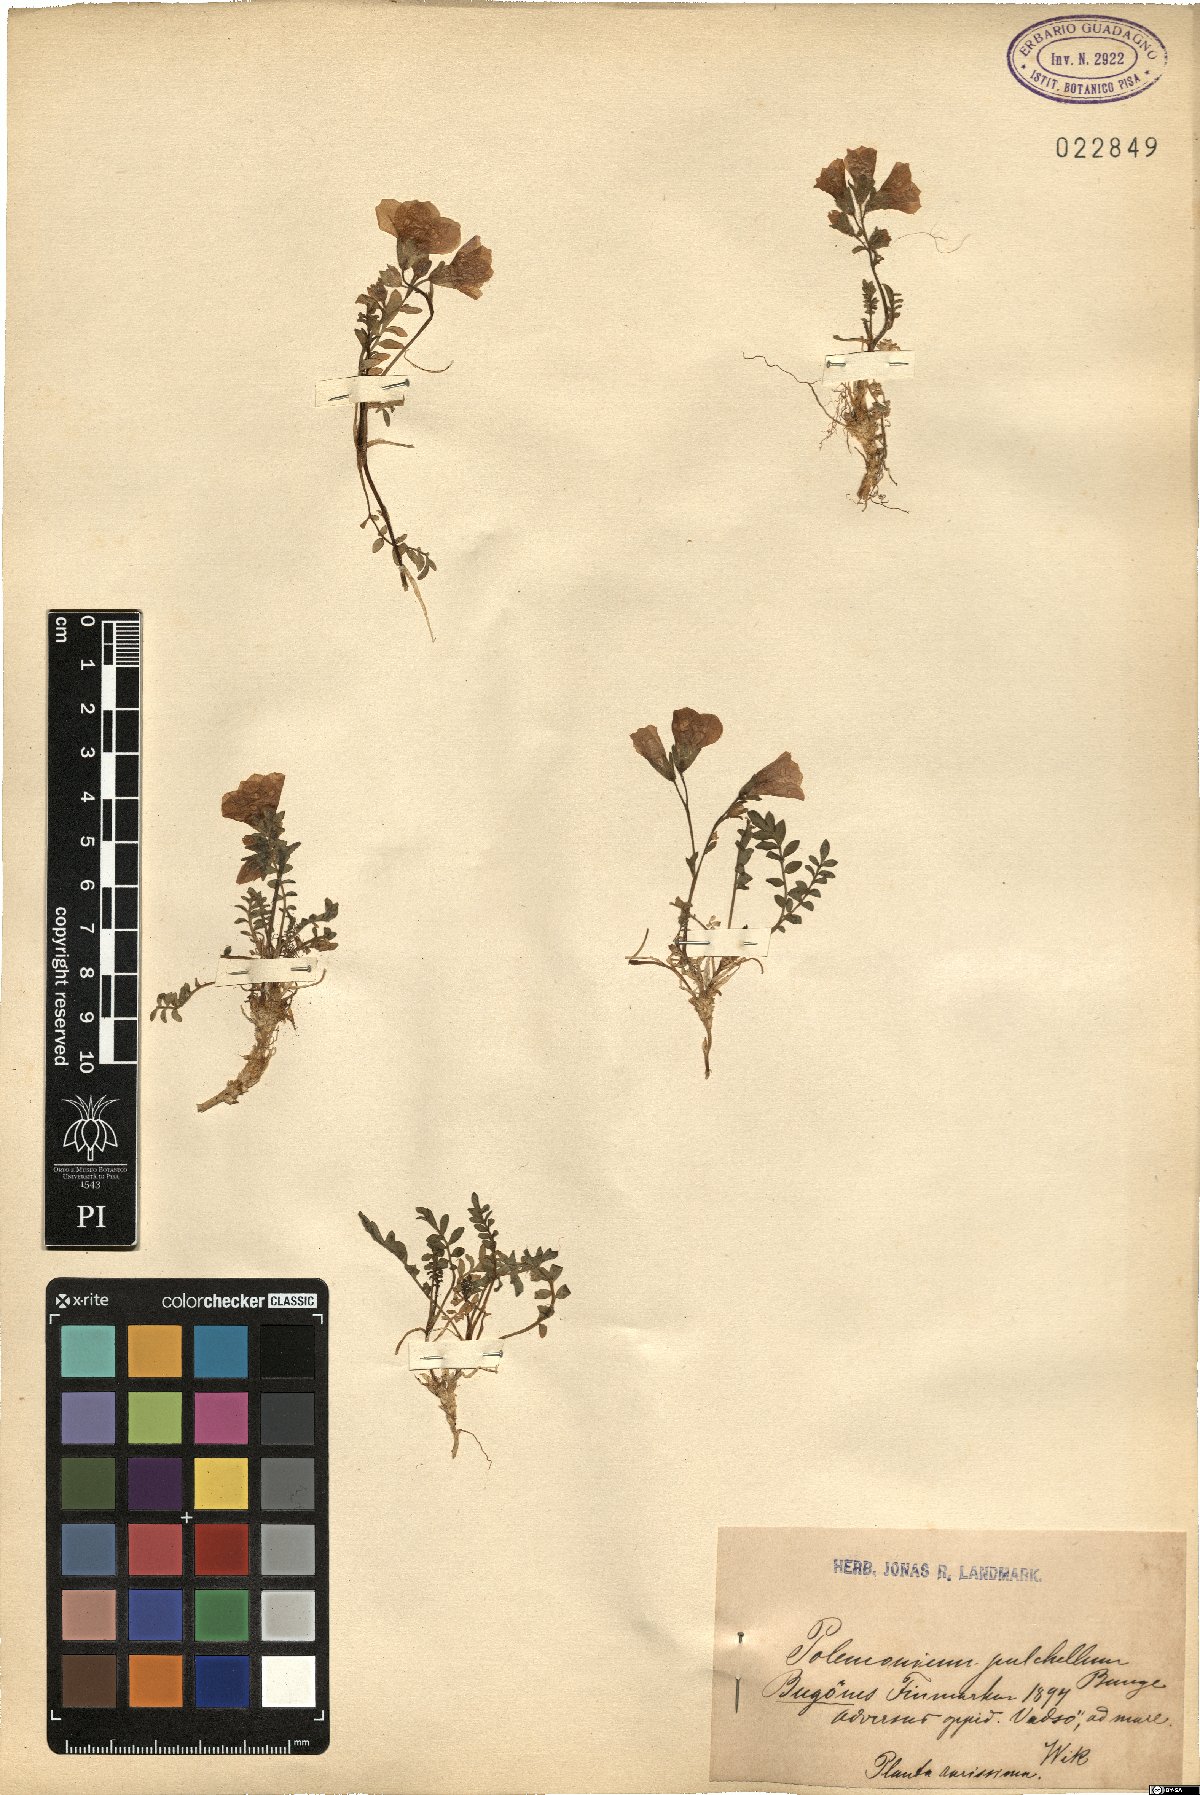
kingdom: Plantae
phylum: Tracheophyta
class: Magnoliopsida
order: Ericales
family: Polemoniaceae
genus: Polemonium
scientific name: Polemonium pulchellum
